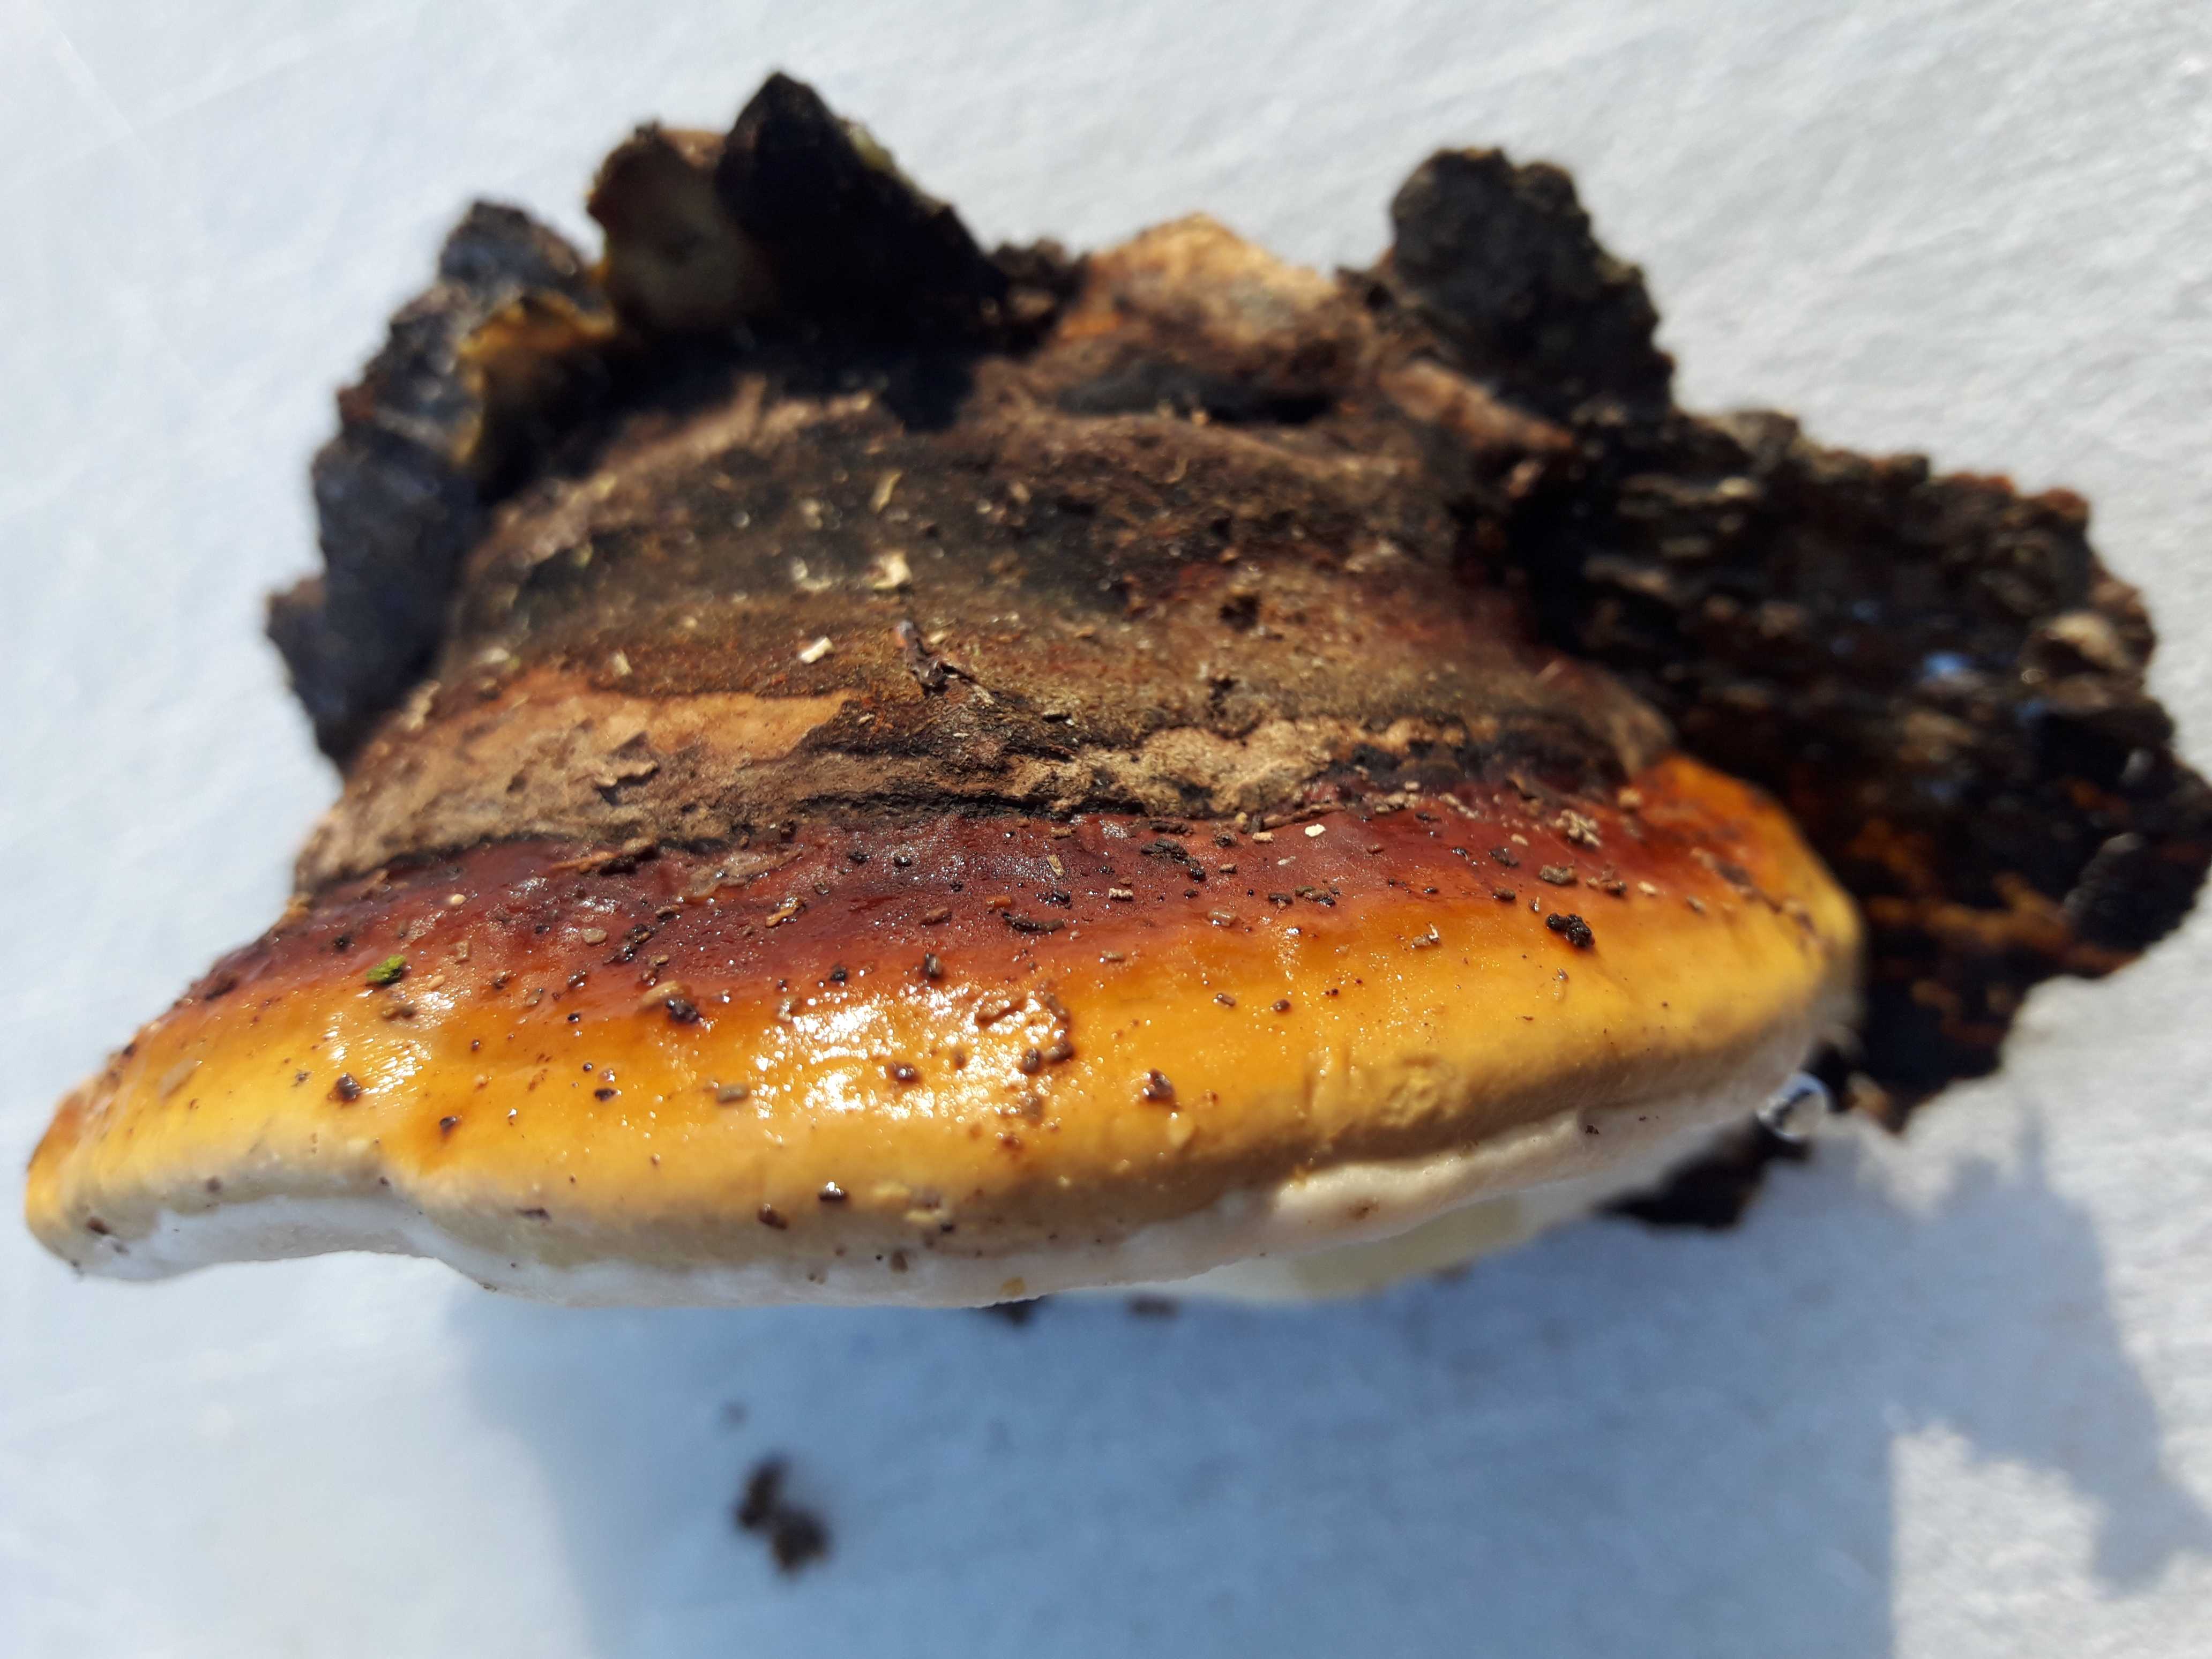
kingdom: Fungi
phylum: Basidiomycota
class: Agaricomycetes
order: Polyporales
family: Fomitopsidaceae
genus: Fomitopsis
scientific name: Fomitopsis pinicola
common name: randbæltet hovporesvamp
